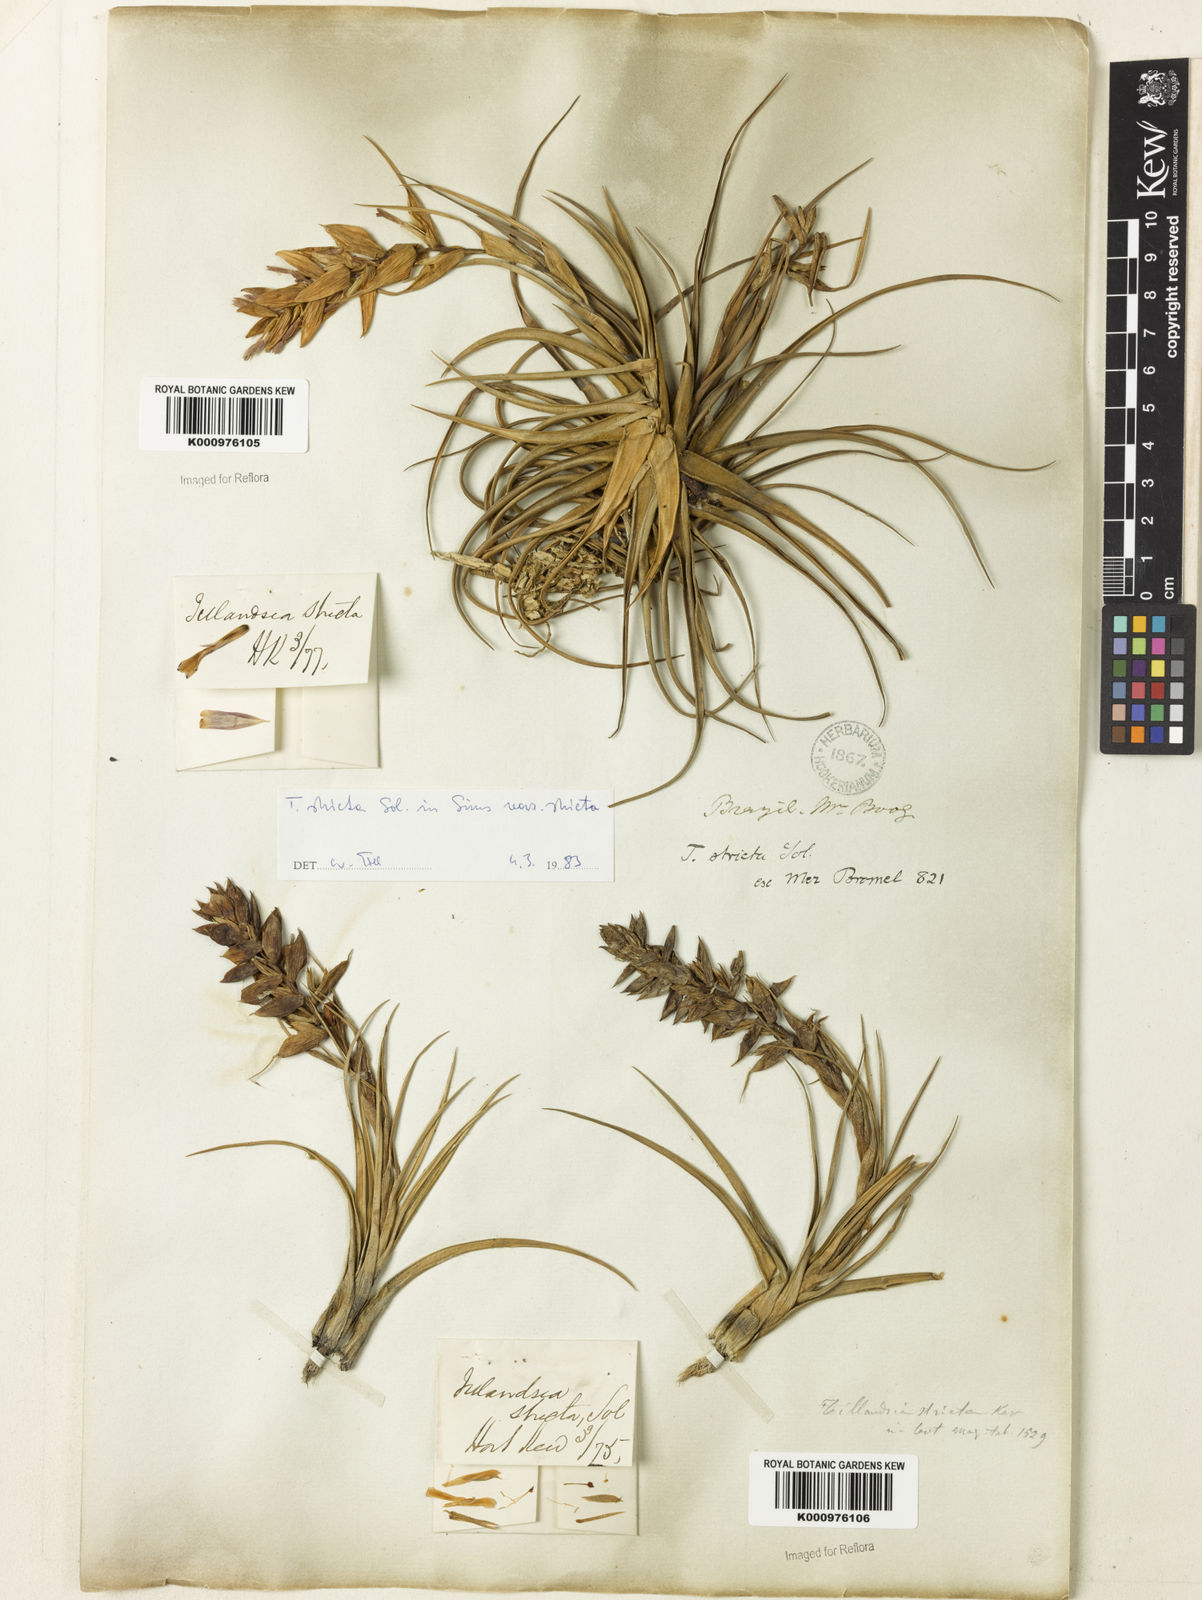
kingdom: Plantae
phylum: Tracheophyta
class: Liliopsida
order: Poales
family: Bromeliaceae
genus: Tillandsia
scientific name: Tillandsia stricta
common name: Airplant
